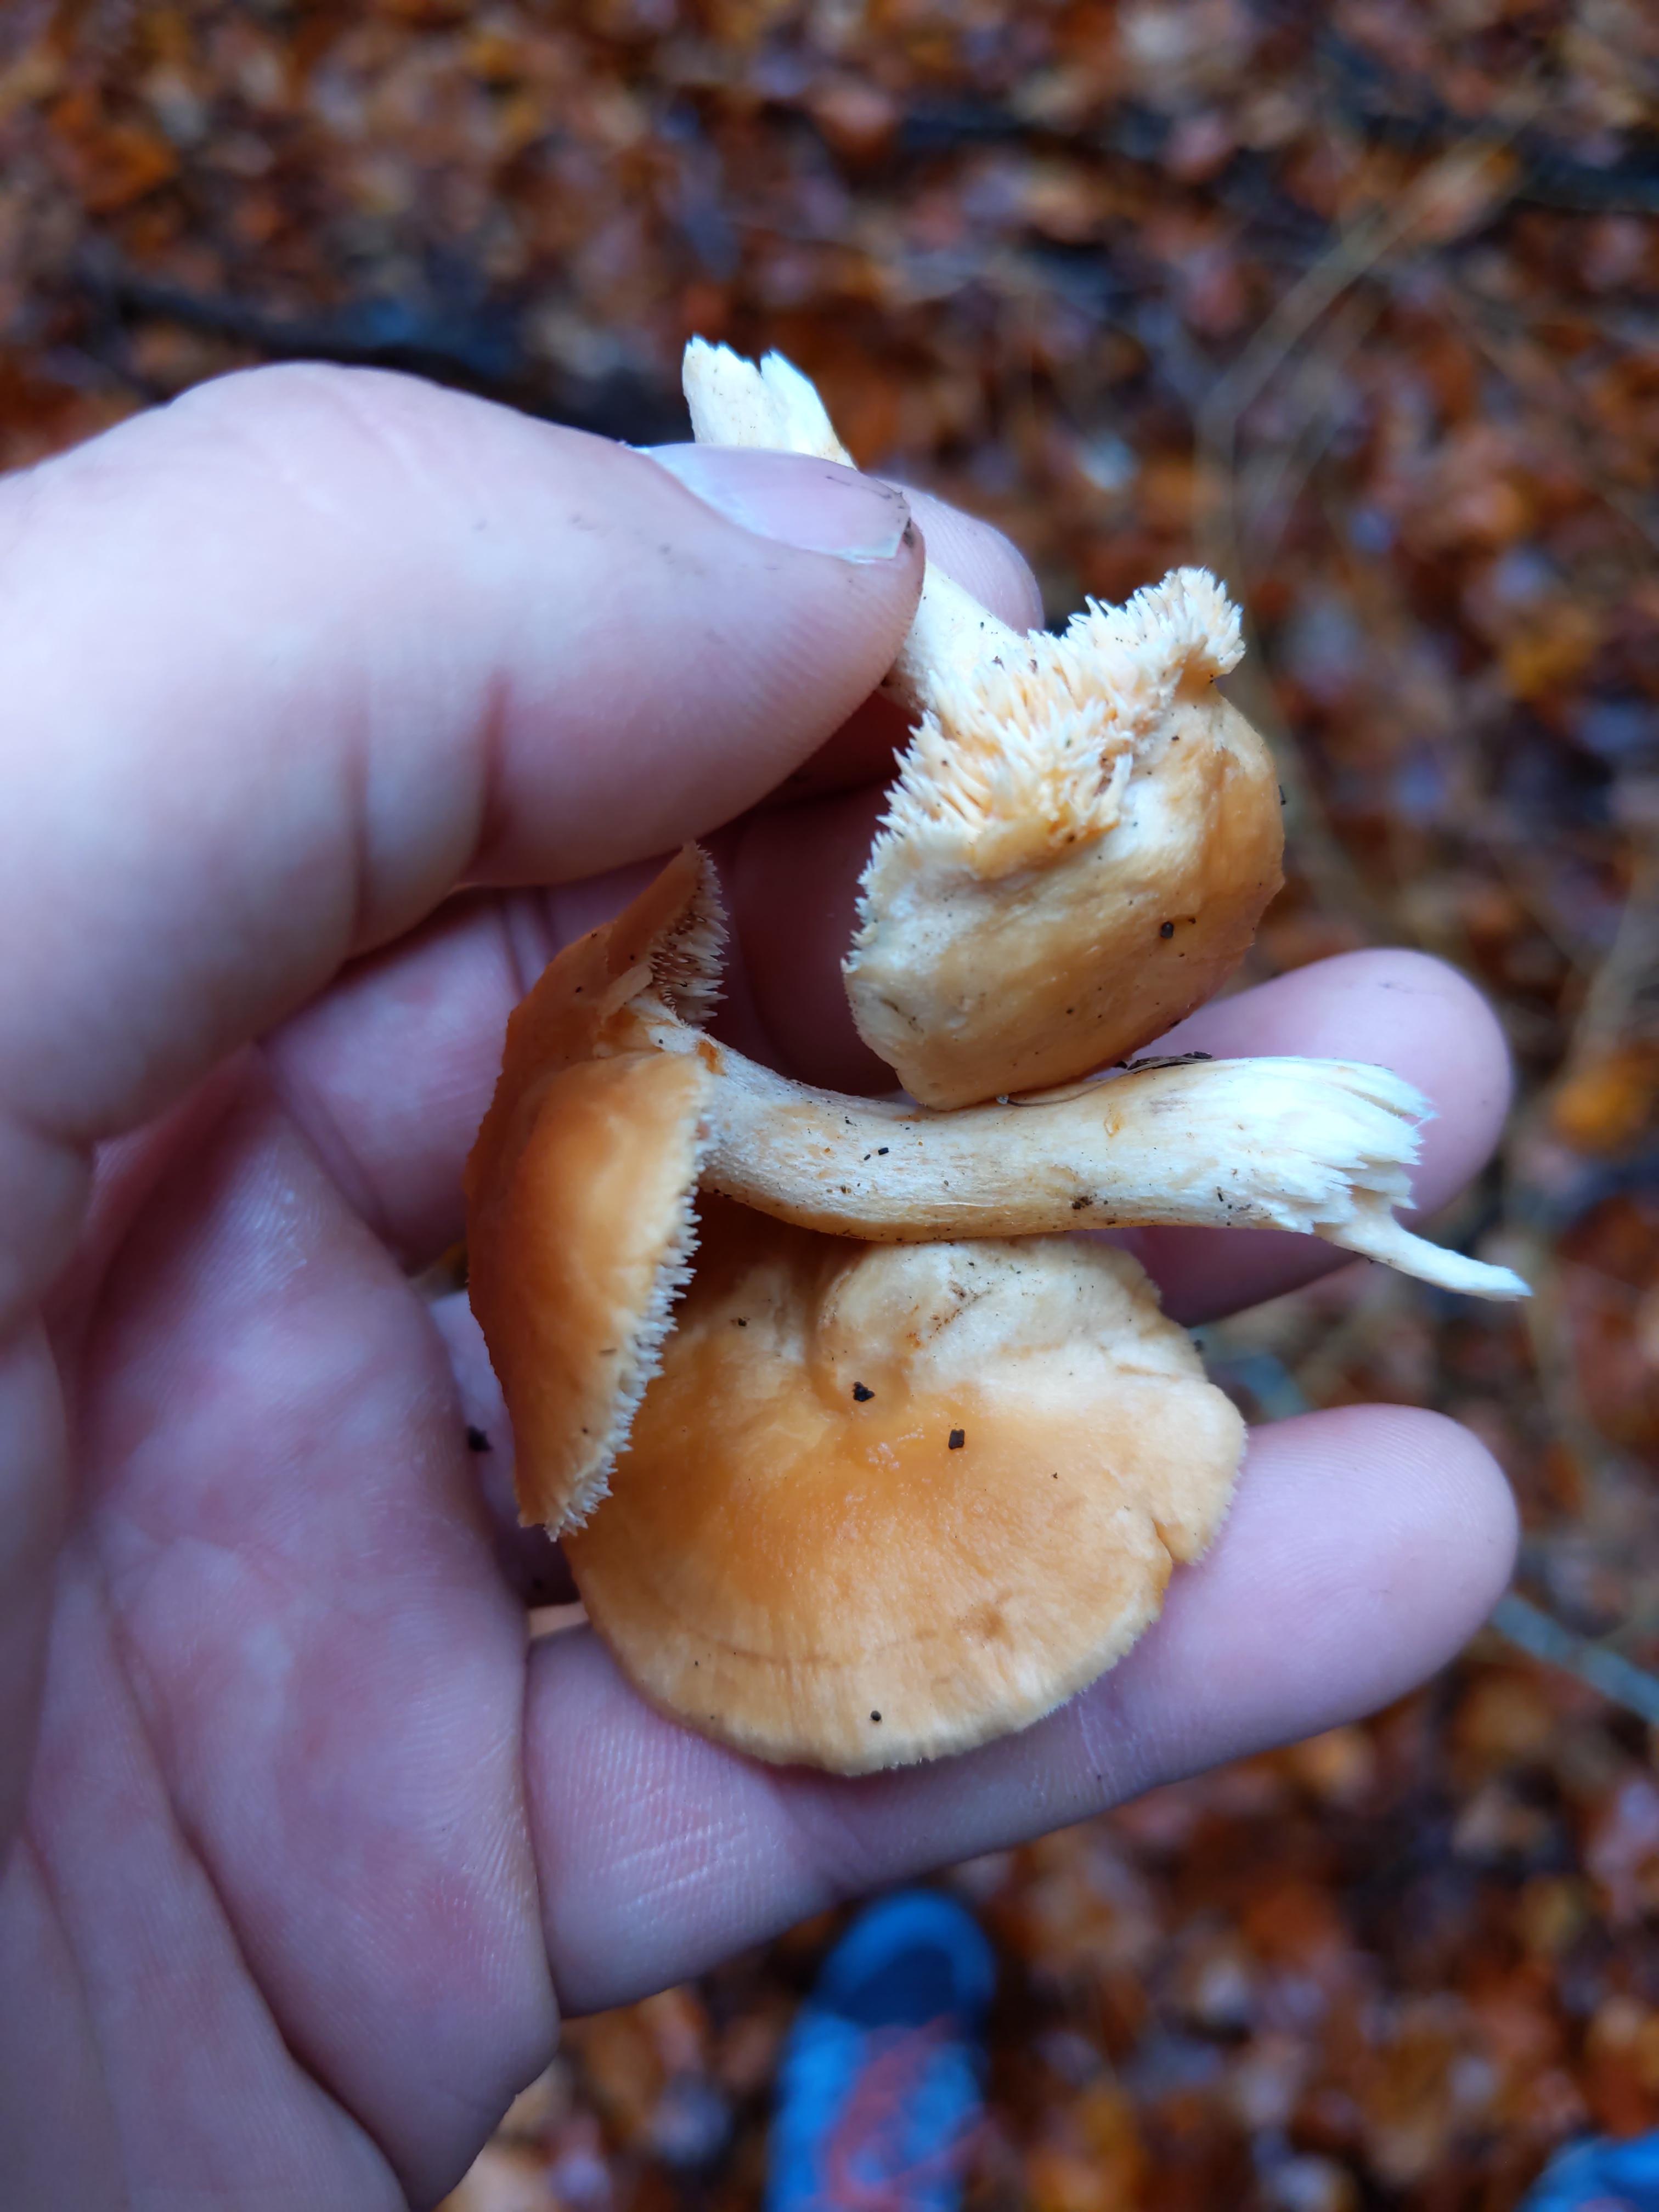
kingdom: Fungi
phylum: Basidiomycota
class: Agaricomycetes
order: Cantharellales
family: Hydnaceae
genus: Hydnum
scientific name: Hydnum rufescens
